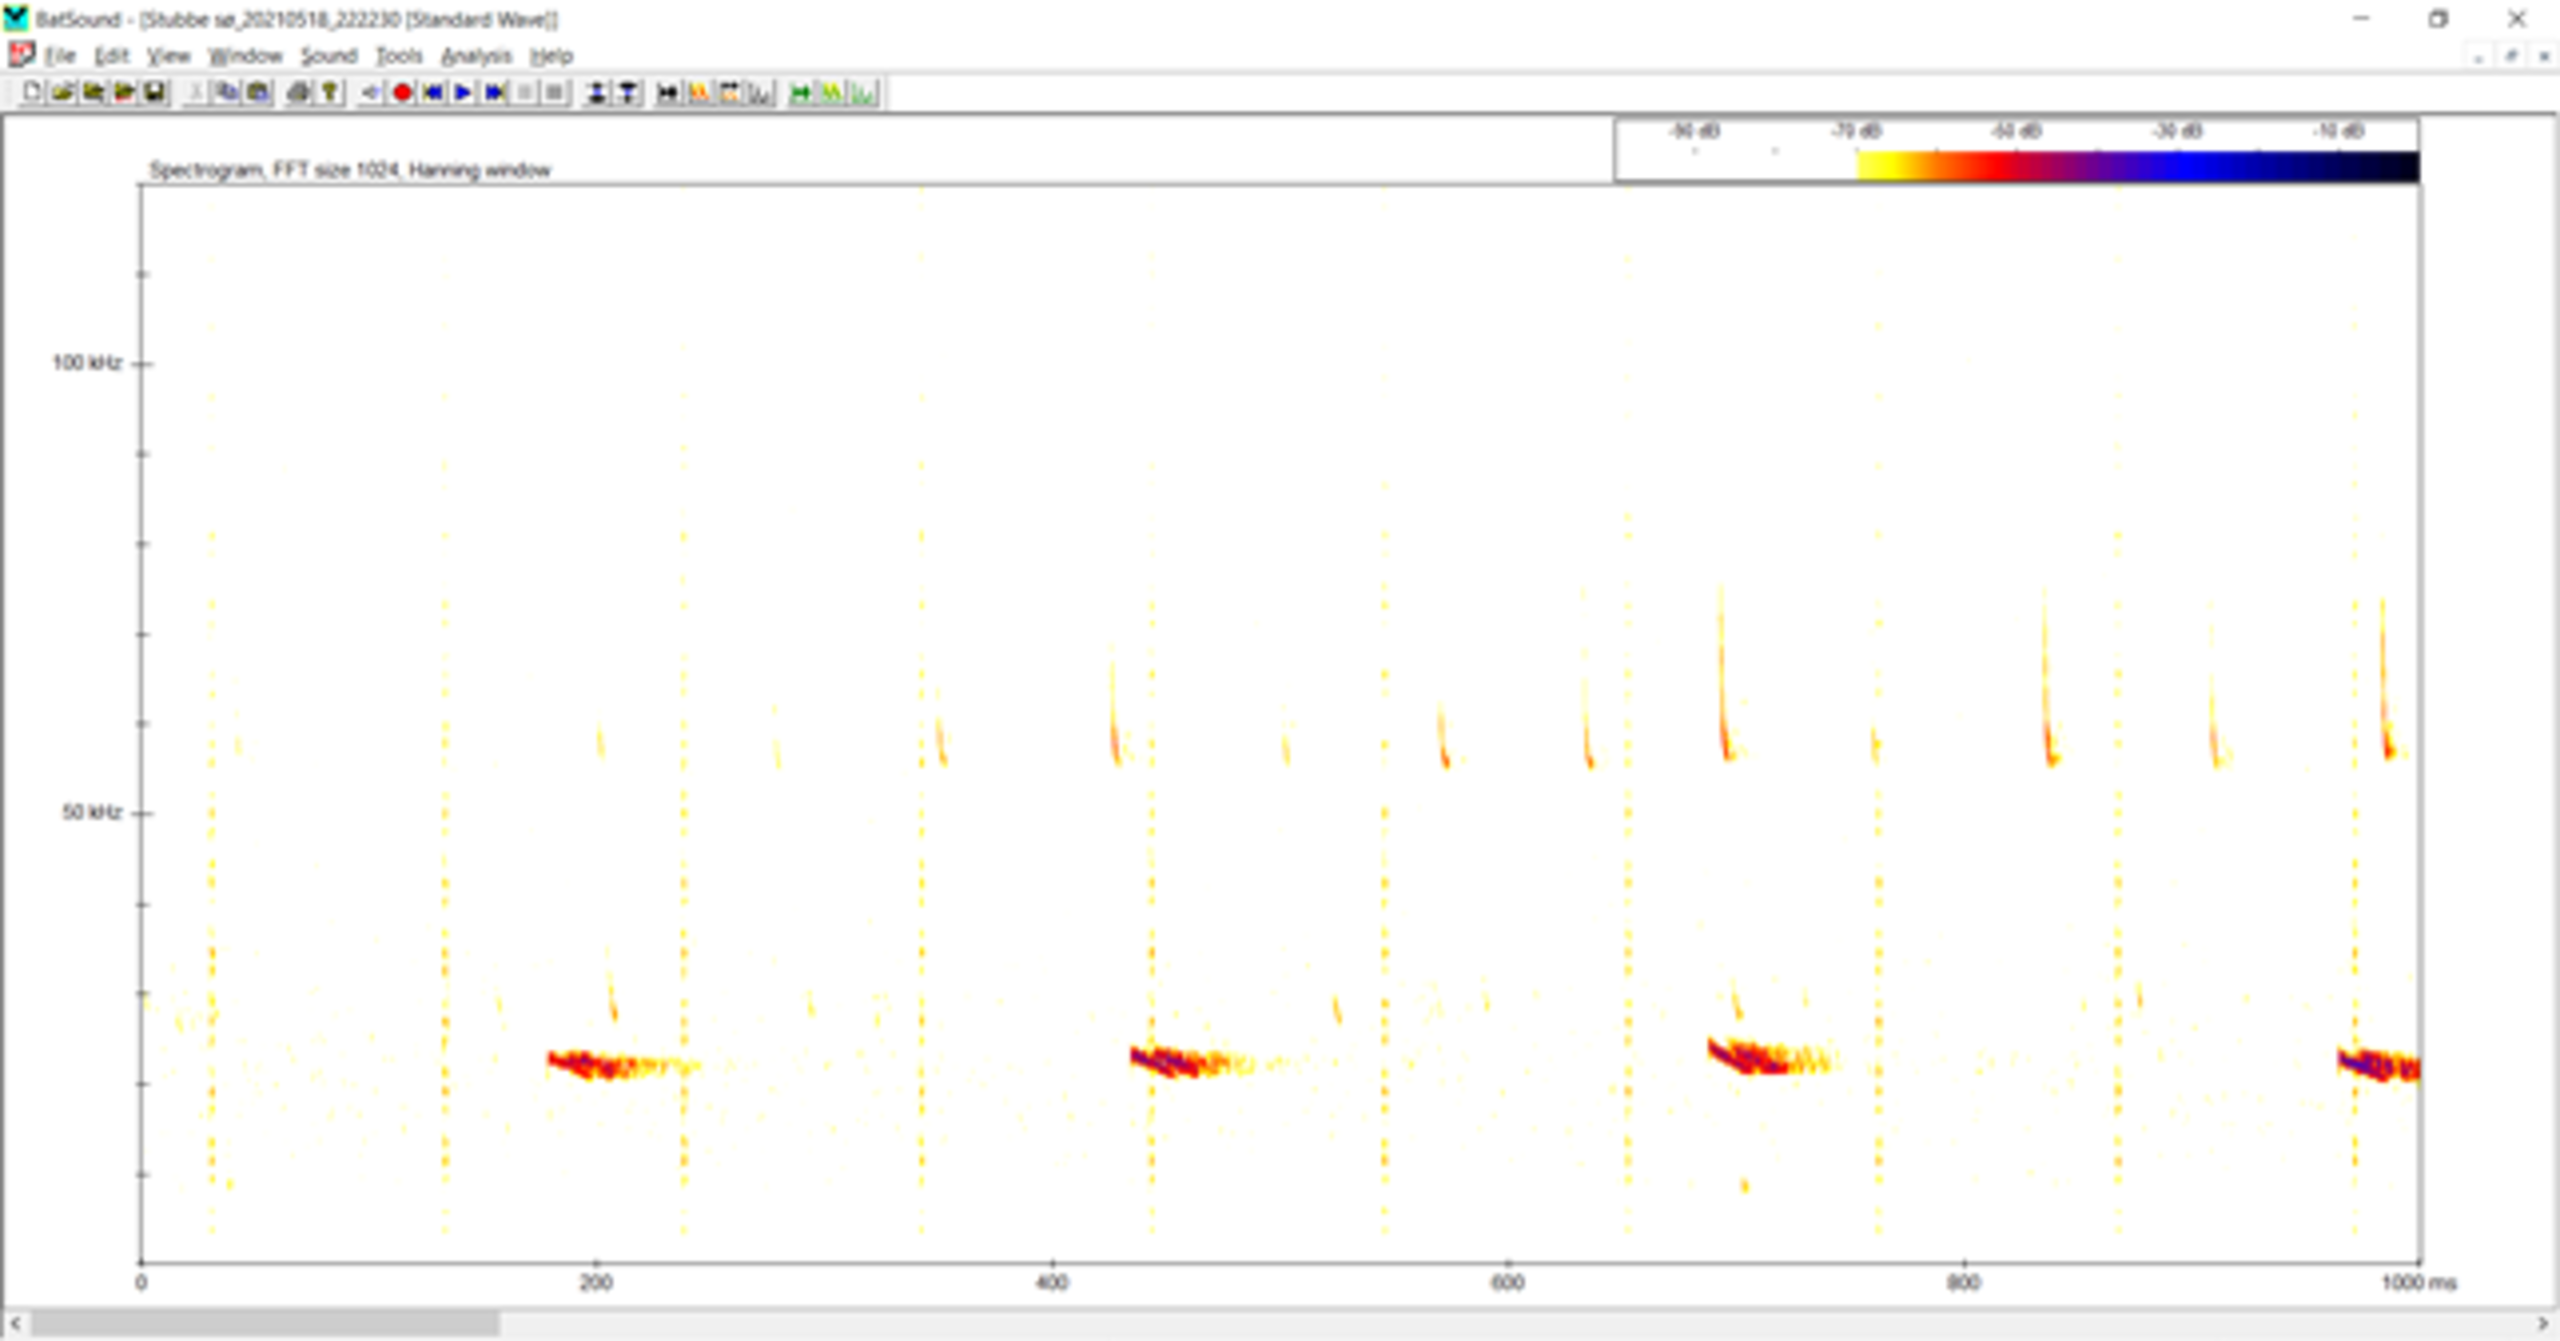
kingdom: Animalia
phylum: Chordata
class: Mammalia
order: Chiroptera
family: Vespertilionidae
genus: Nyctalus
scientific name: Nyctalus noctula
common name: Brunflagermus
